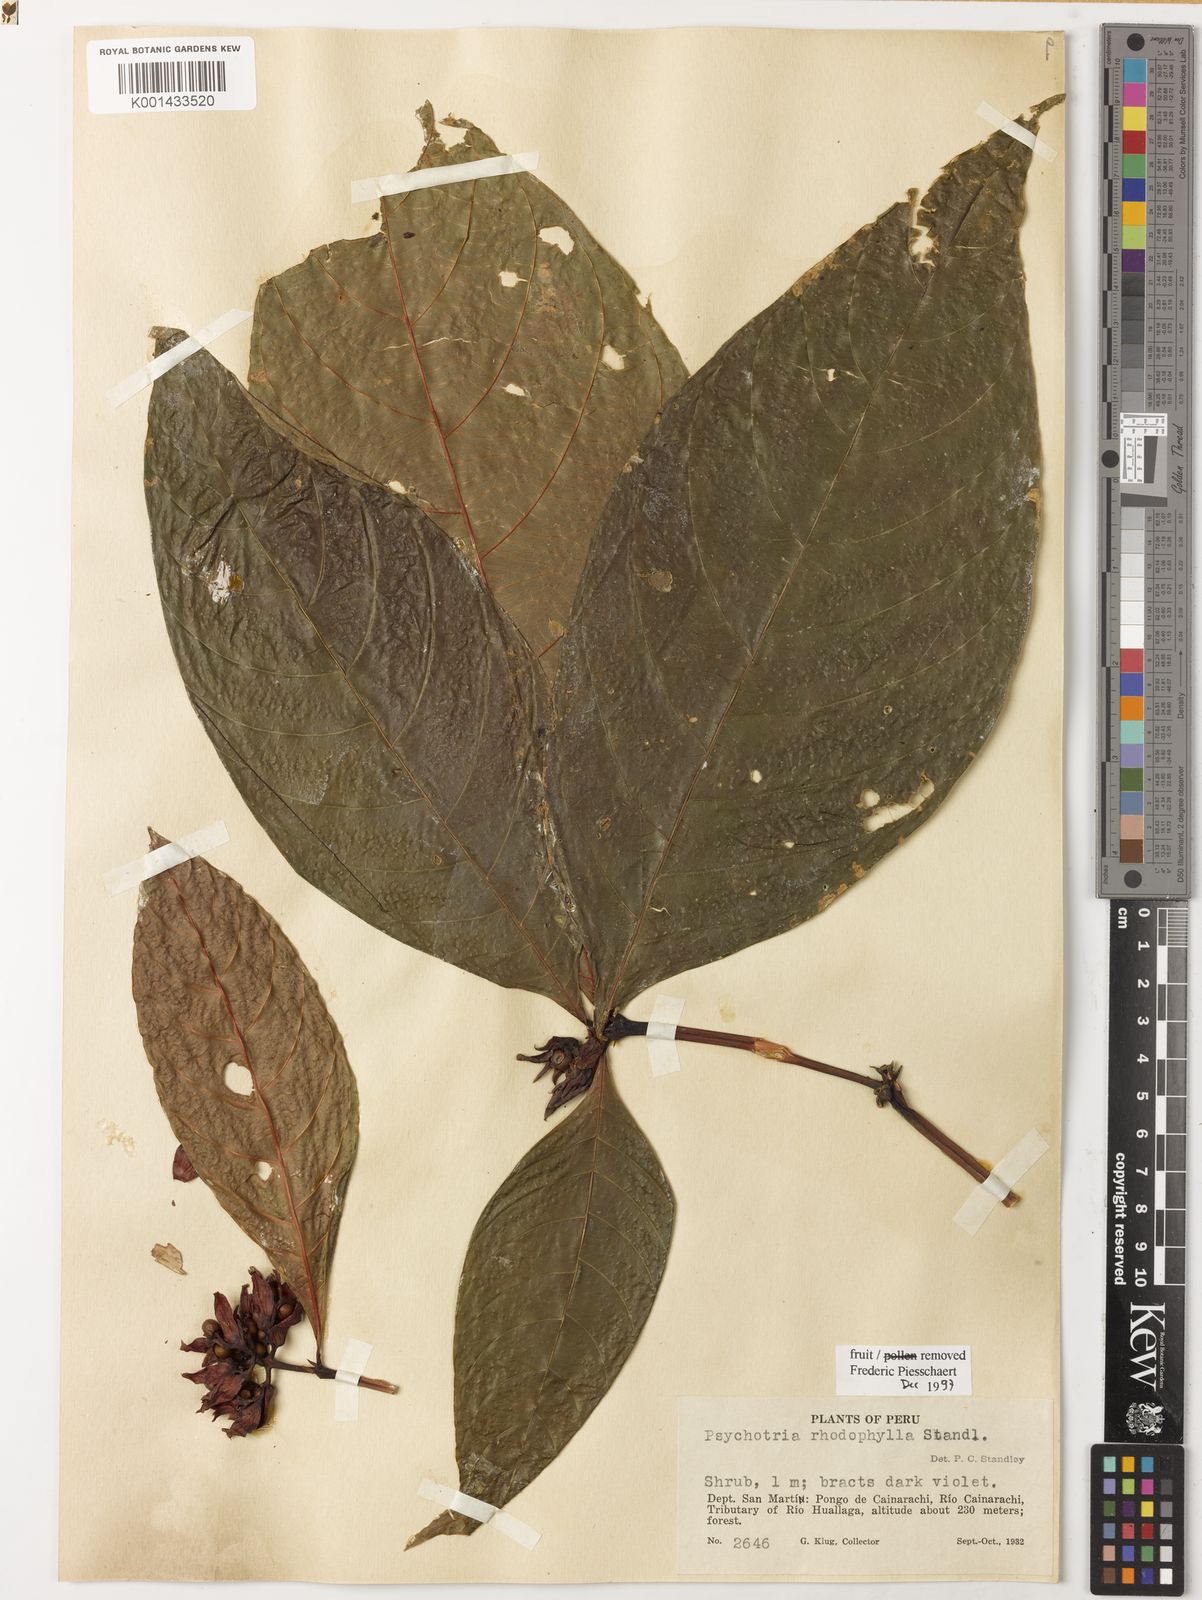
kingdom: Plantae
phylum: Tracheophyta
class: Magnoliopsida
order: Gentianales
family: Rubiaceae
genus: Palicourea
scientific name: Palicourea justiciifolia
